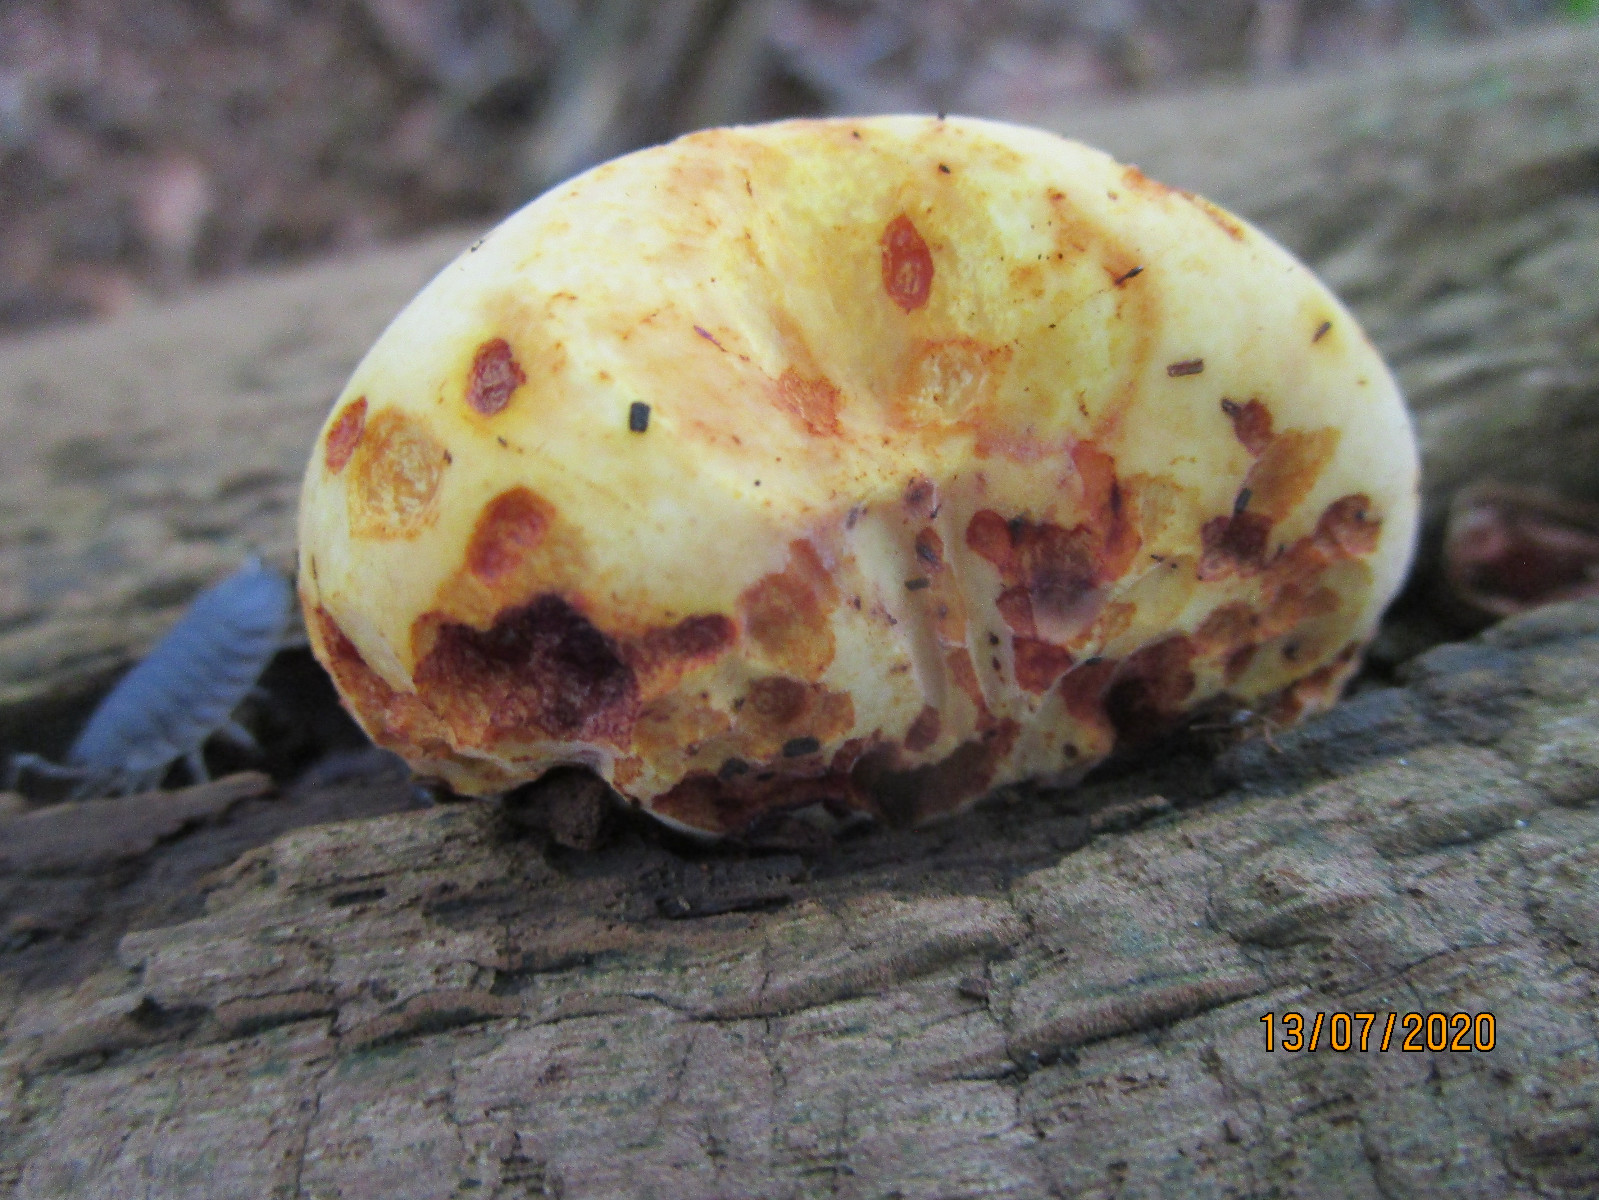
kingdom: Fungi
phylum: Basidiomycota
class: Agaricomycetes
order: Polyporales
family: Fomitopsidaceae
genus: Buglossoporus
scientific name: Buglossoporus quercinus
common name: egetunge
